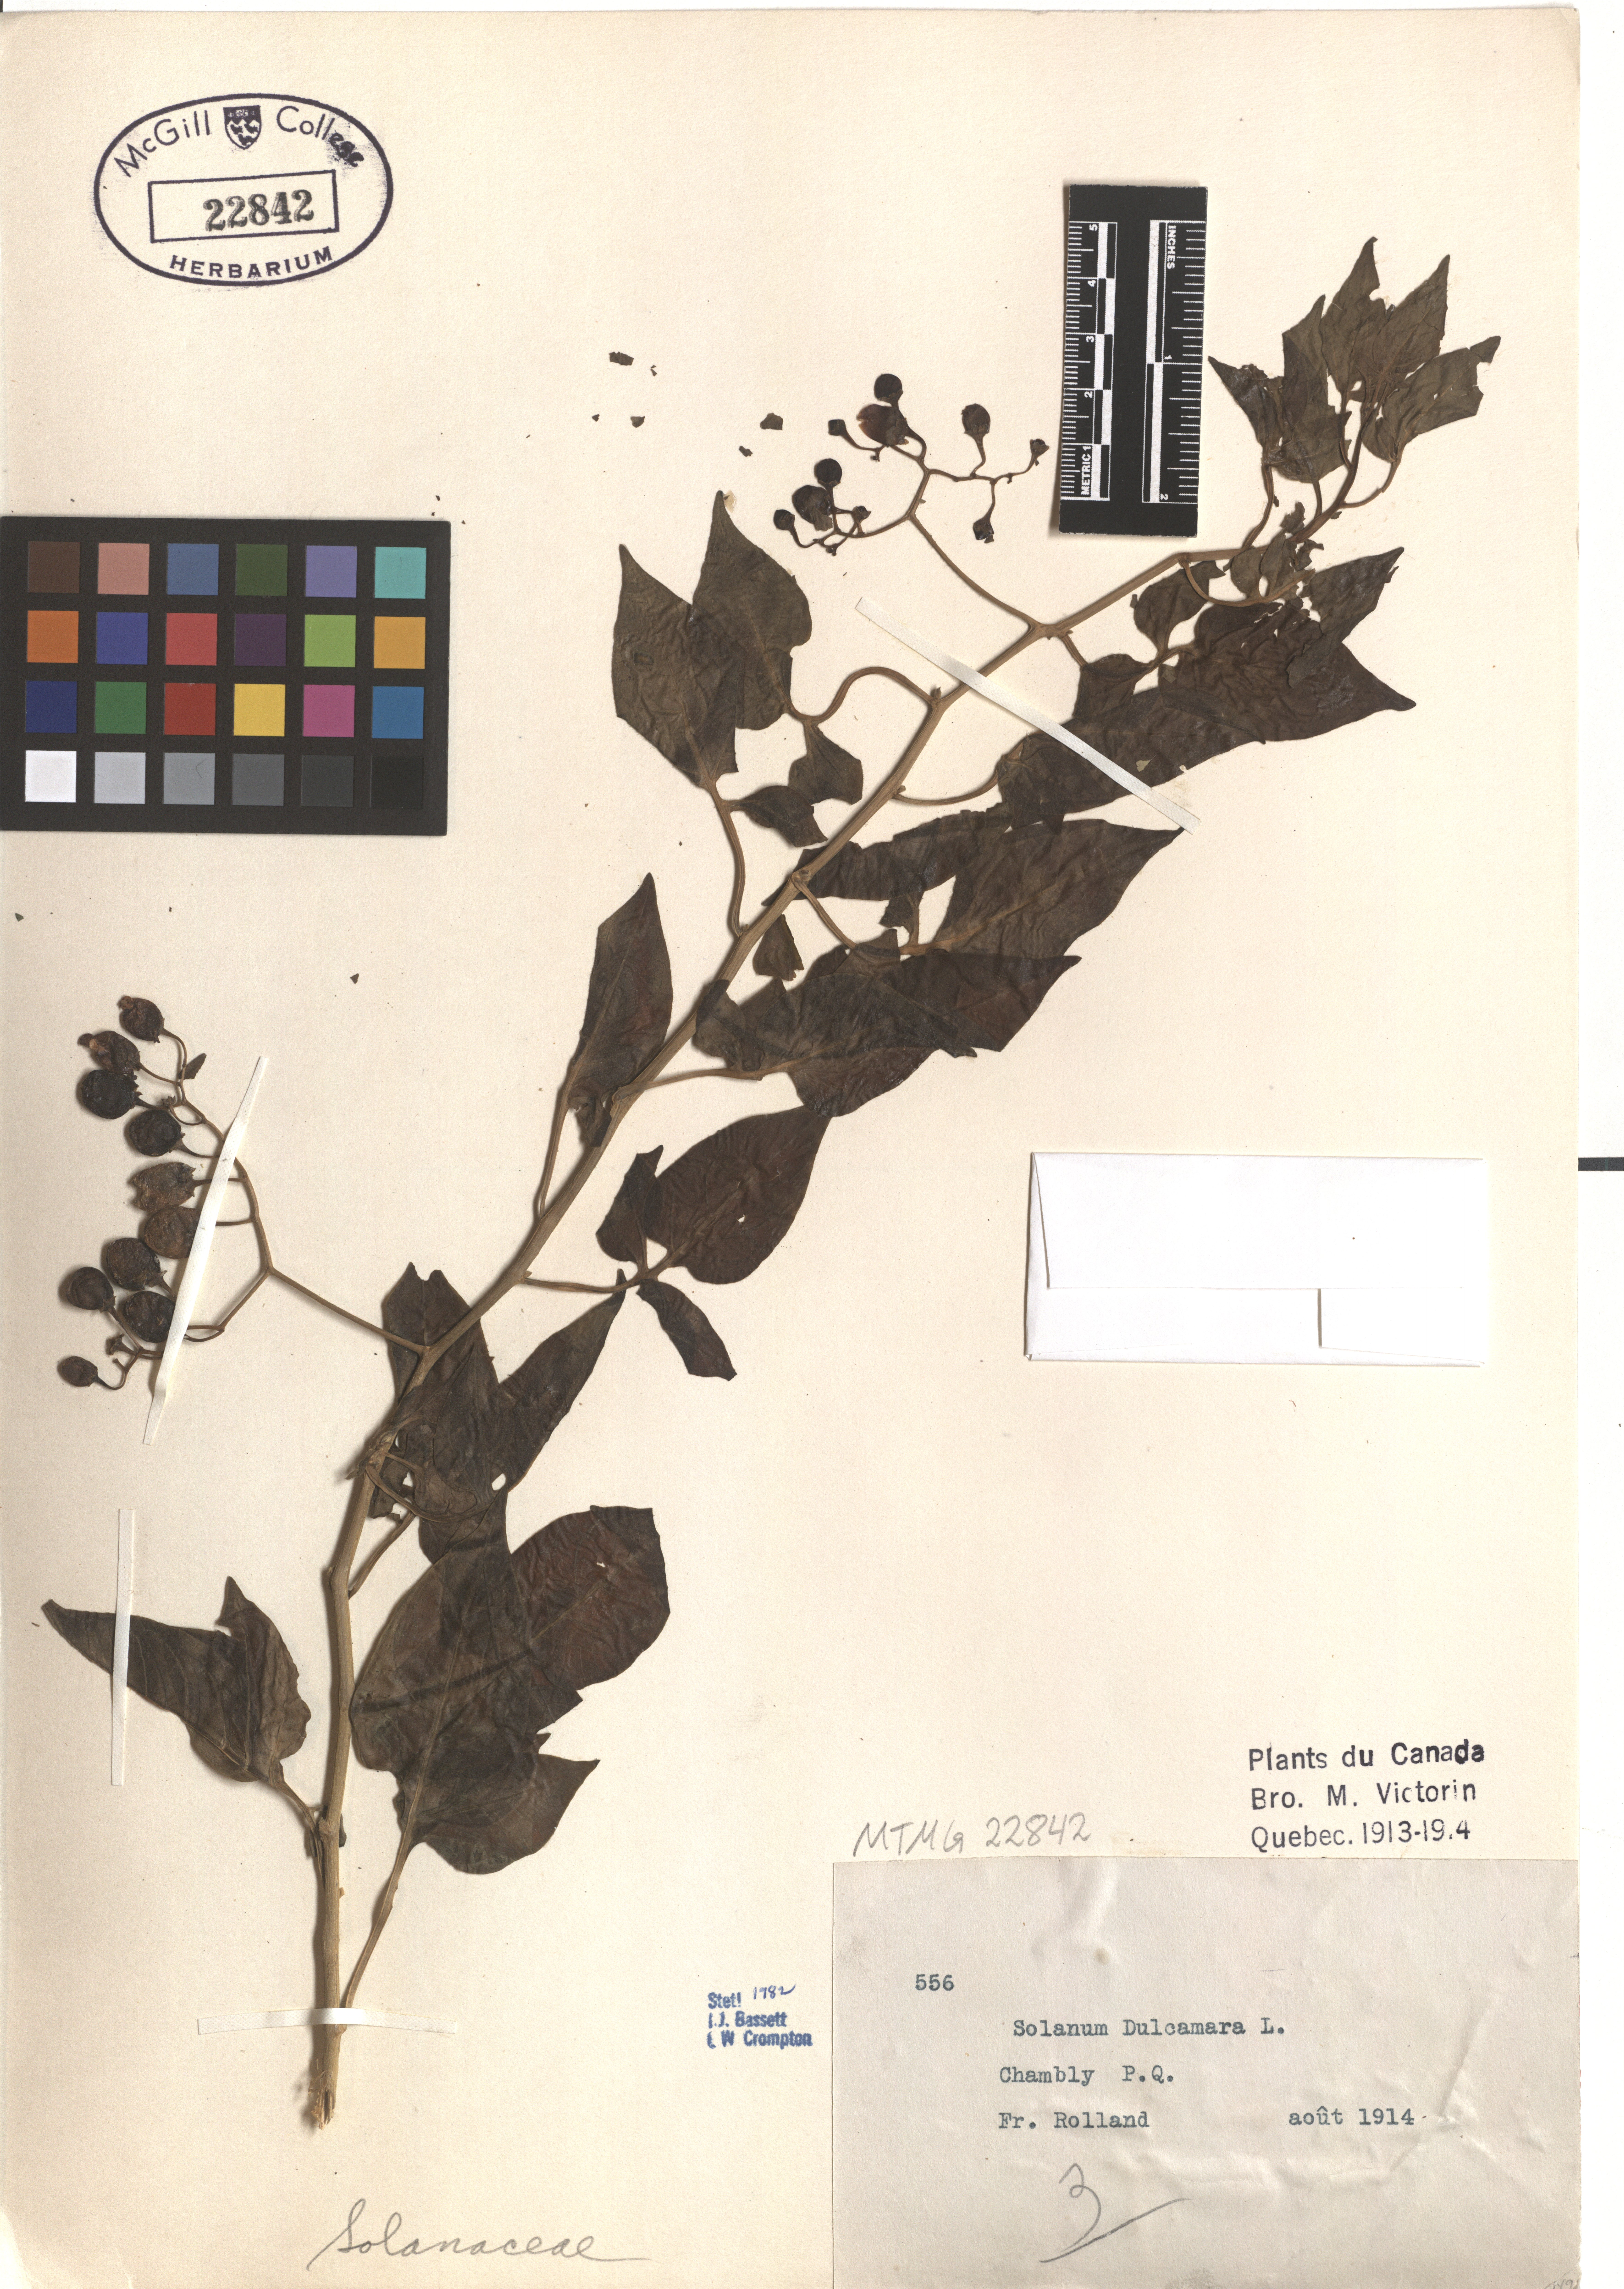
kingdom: Plantae
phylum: Tracheophyta
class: Magnoliopsida
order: Solanales
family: Solanaceae
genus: Solanum
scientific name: Solanum dulcamara
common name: Climbing nightshade
